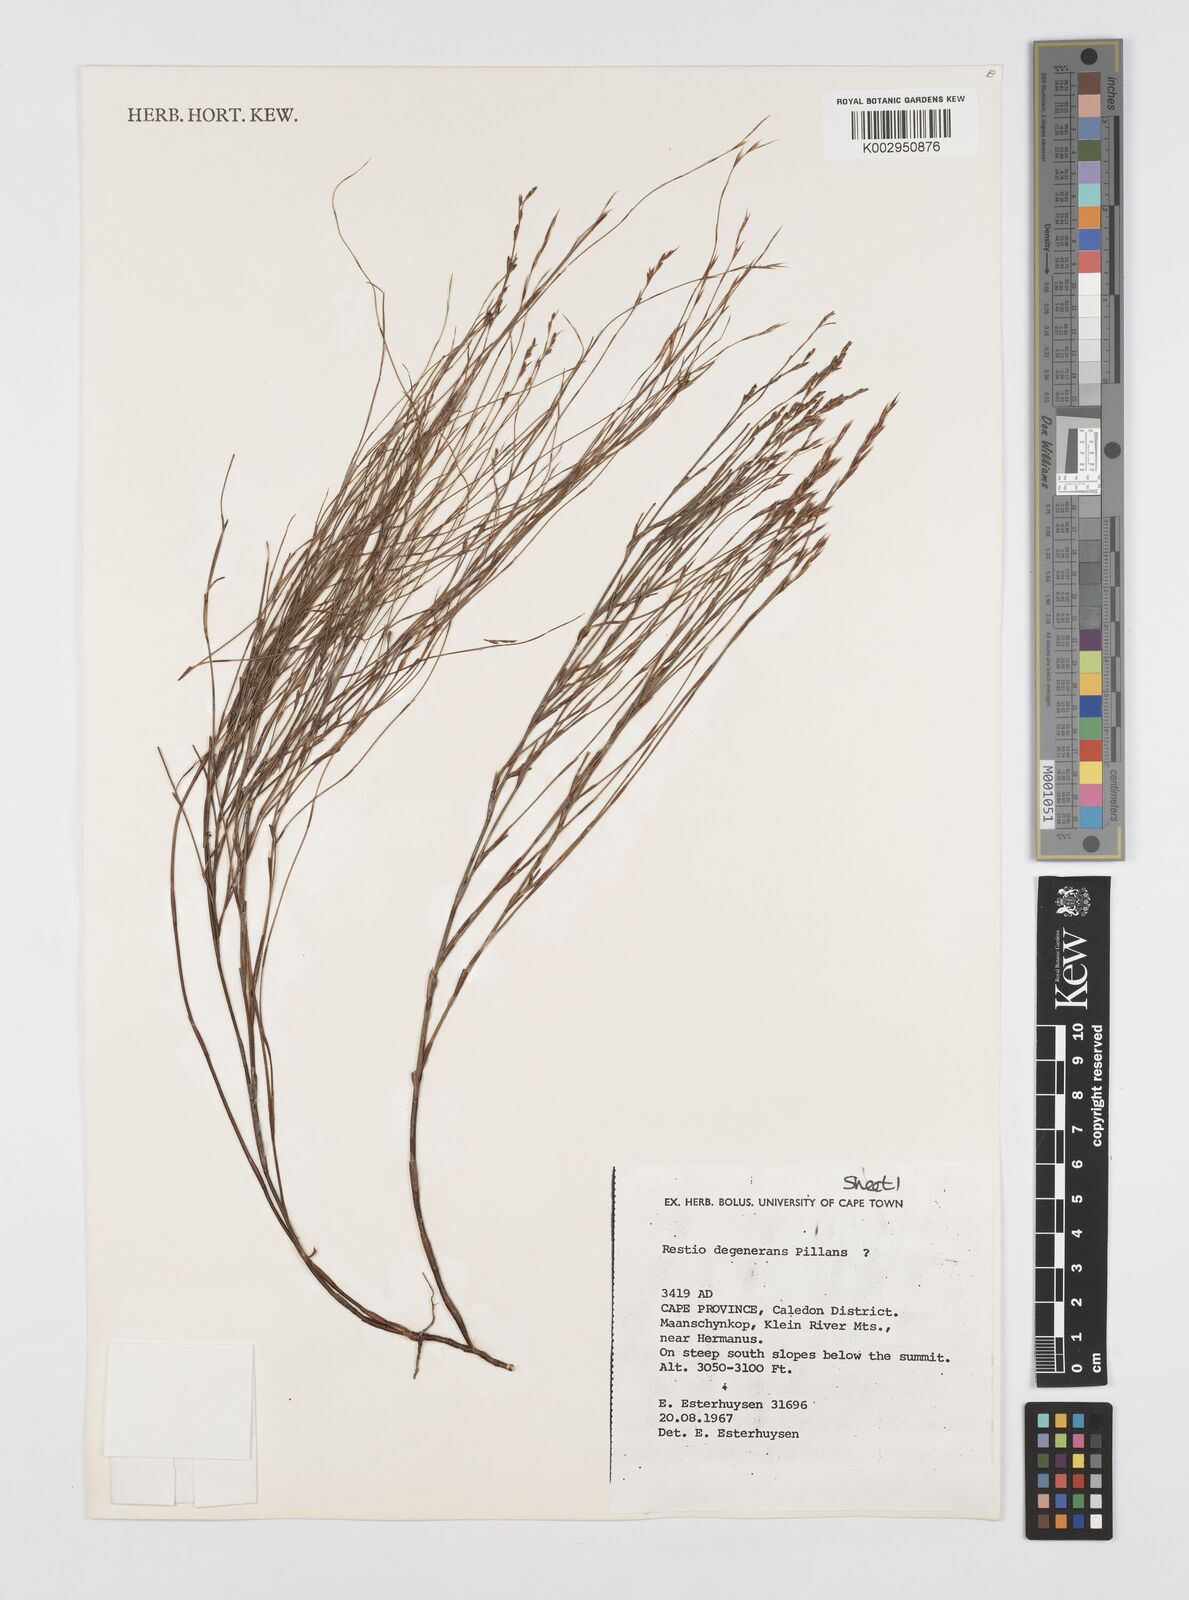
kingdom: Plantae
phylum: Tracheophyta
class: Liliopsida
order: Poales
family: Restionaceae
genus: Restio
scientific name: Restio degenerans
